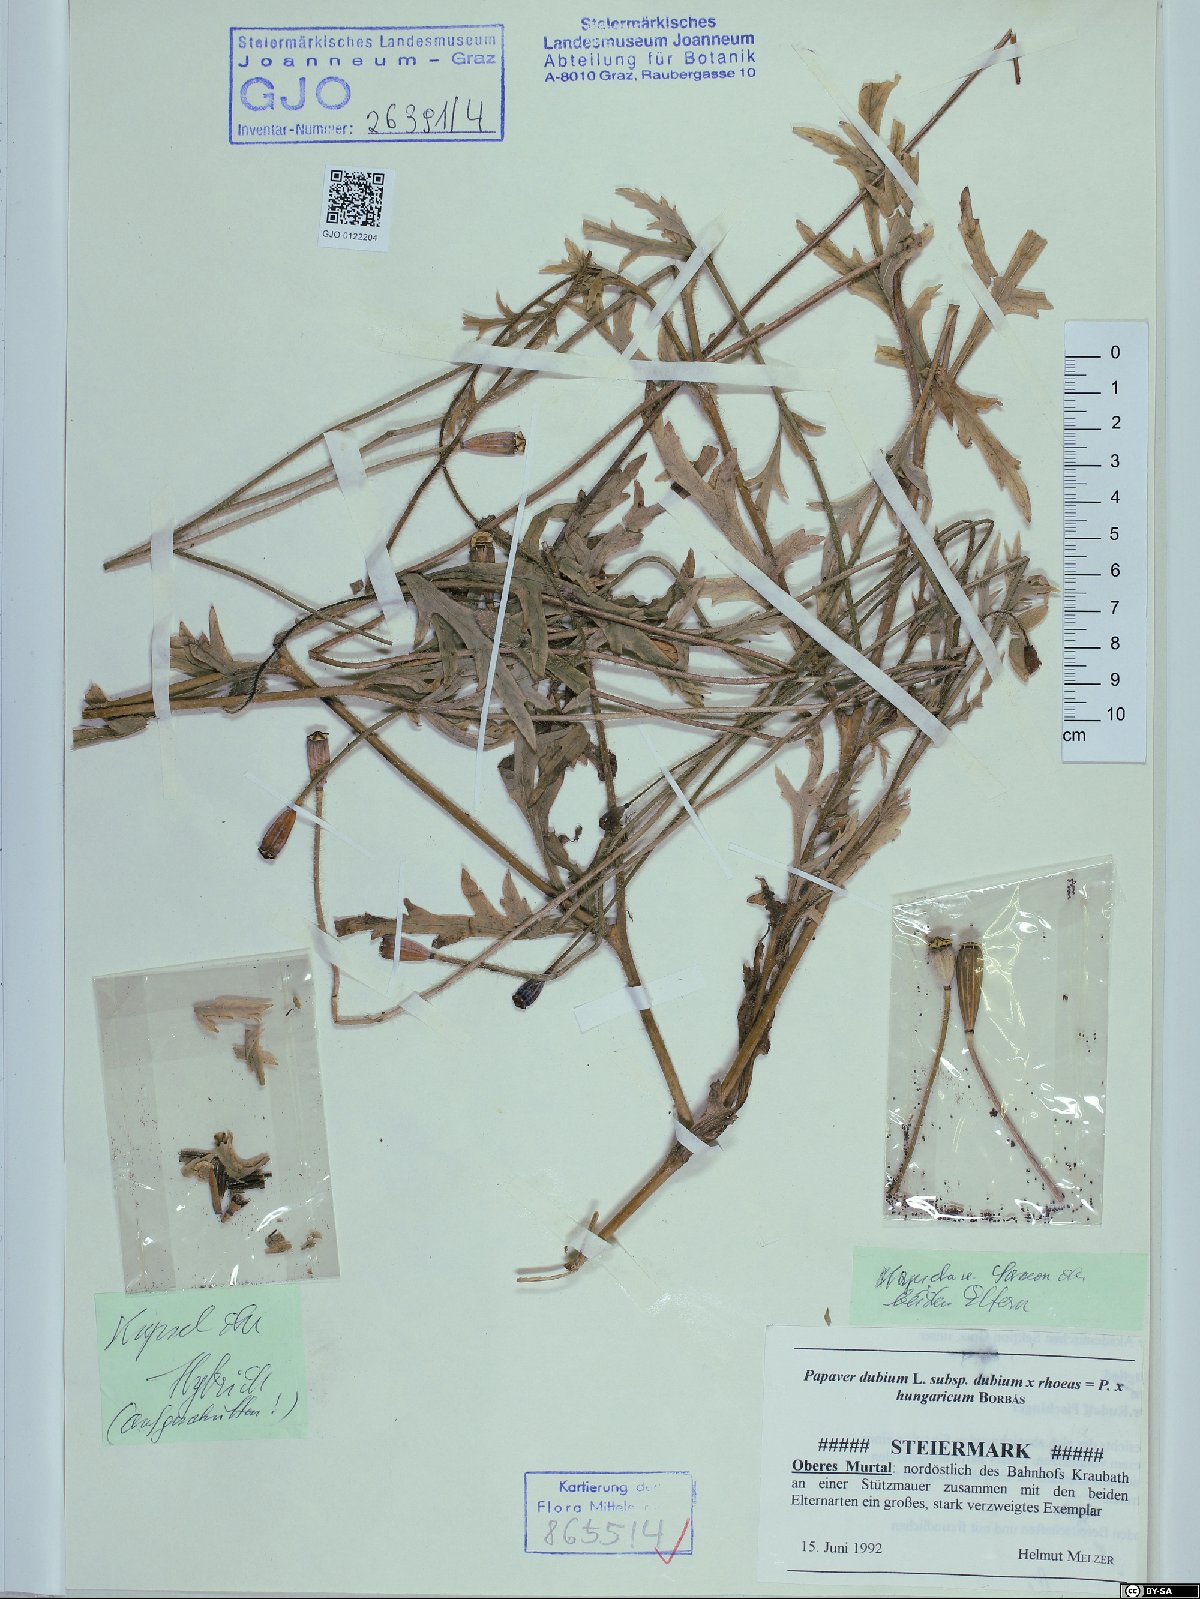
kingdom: Plantae
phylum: Tracheophyta
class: Magnoliopsida
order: Ranunculales
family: Papaveraceae
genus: Papaver
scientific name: Papaver strigosum
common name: Poppy
